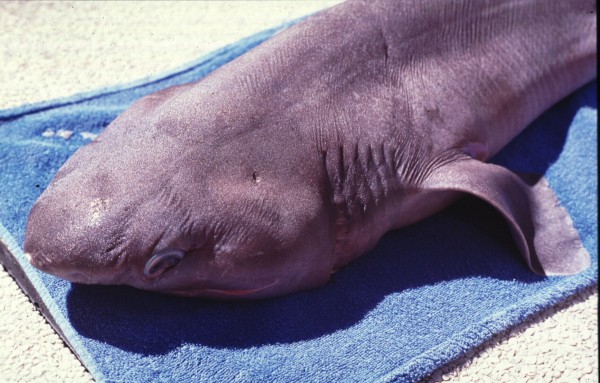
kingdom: Animalia
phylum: Chordata
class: Elasmobranchii
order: Hexanchiformes
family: Hexanchidae
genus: Hexanchus
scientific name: Hexanchus griseus
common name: Bluntnose sixgill shark
